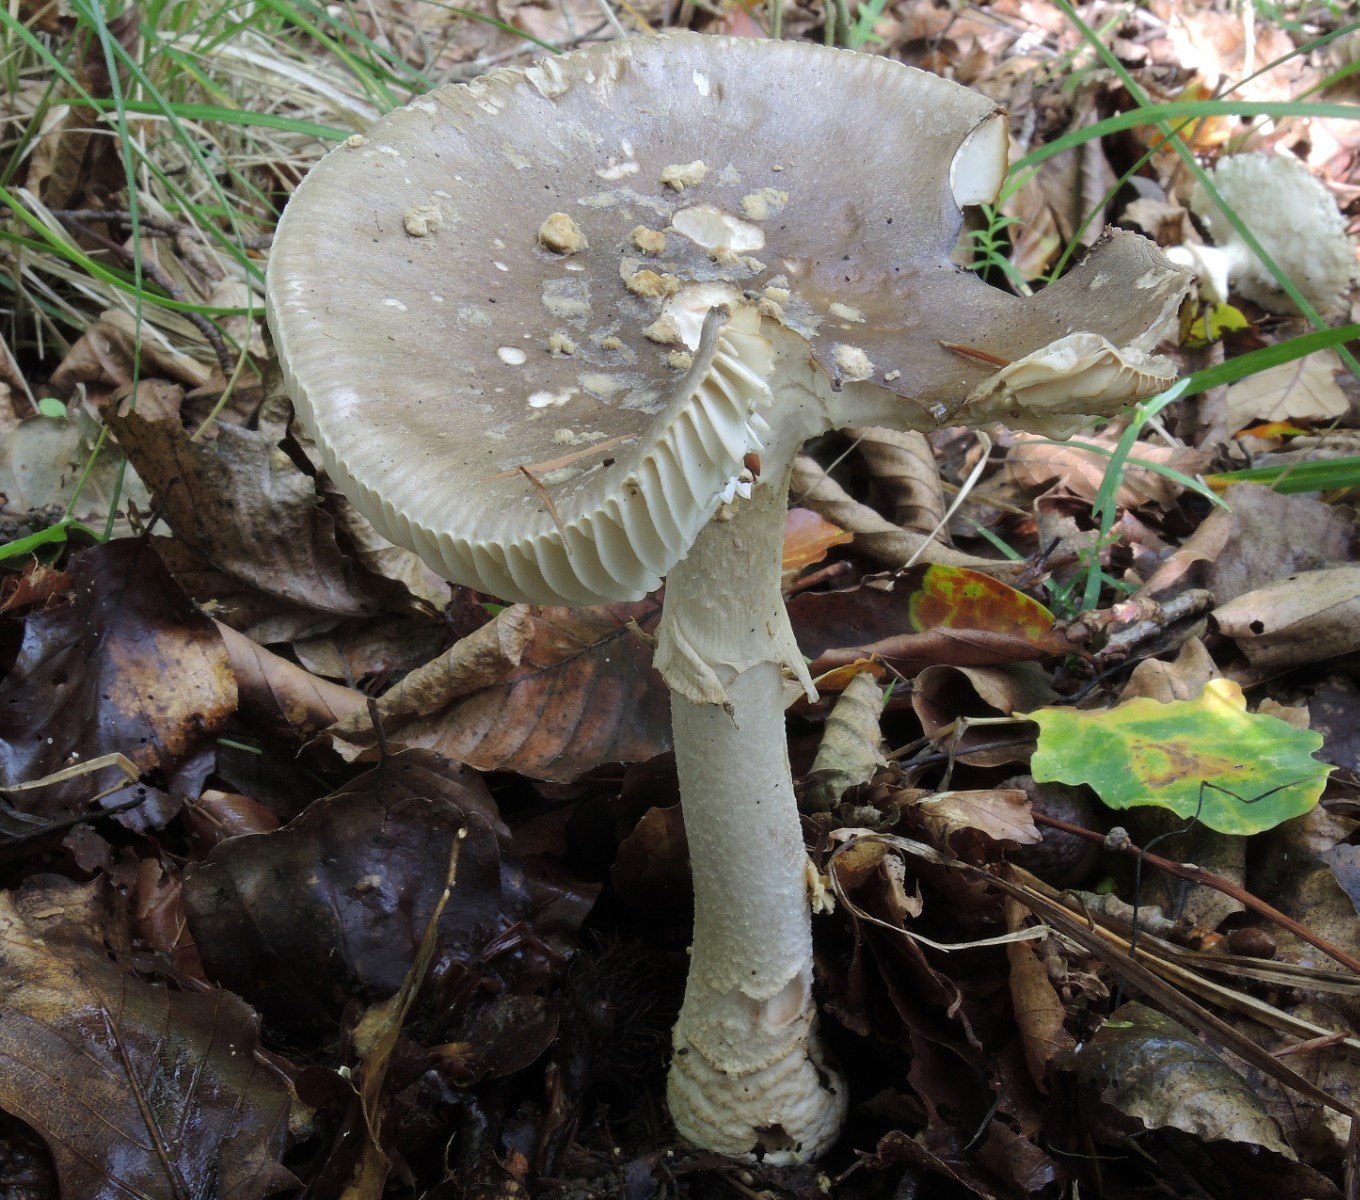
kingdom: Fungi
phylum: Basidiomycota
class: Agaricomycetes
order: Agaricales
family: Amanitaceae
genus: Amanita
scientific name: Amanita rubescens
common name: Blusher
